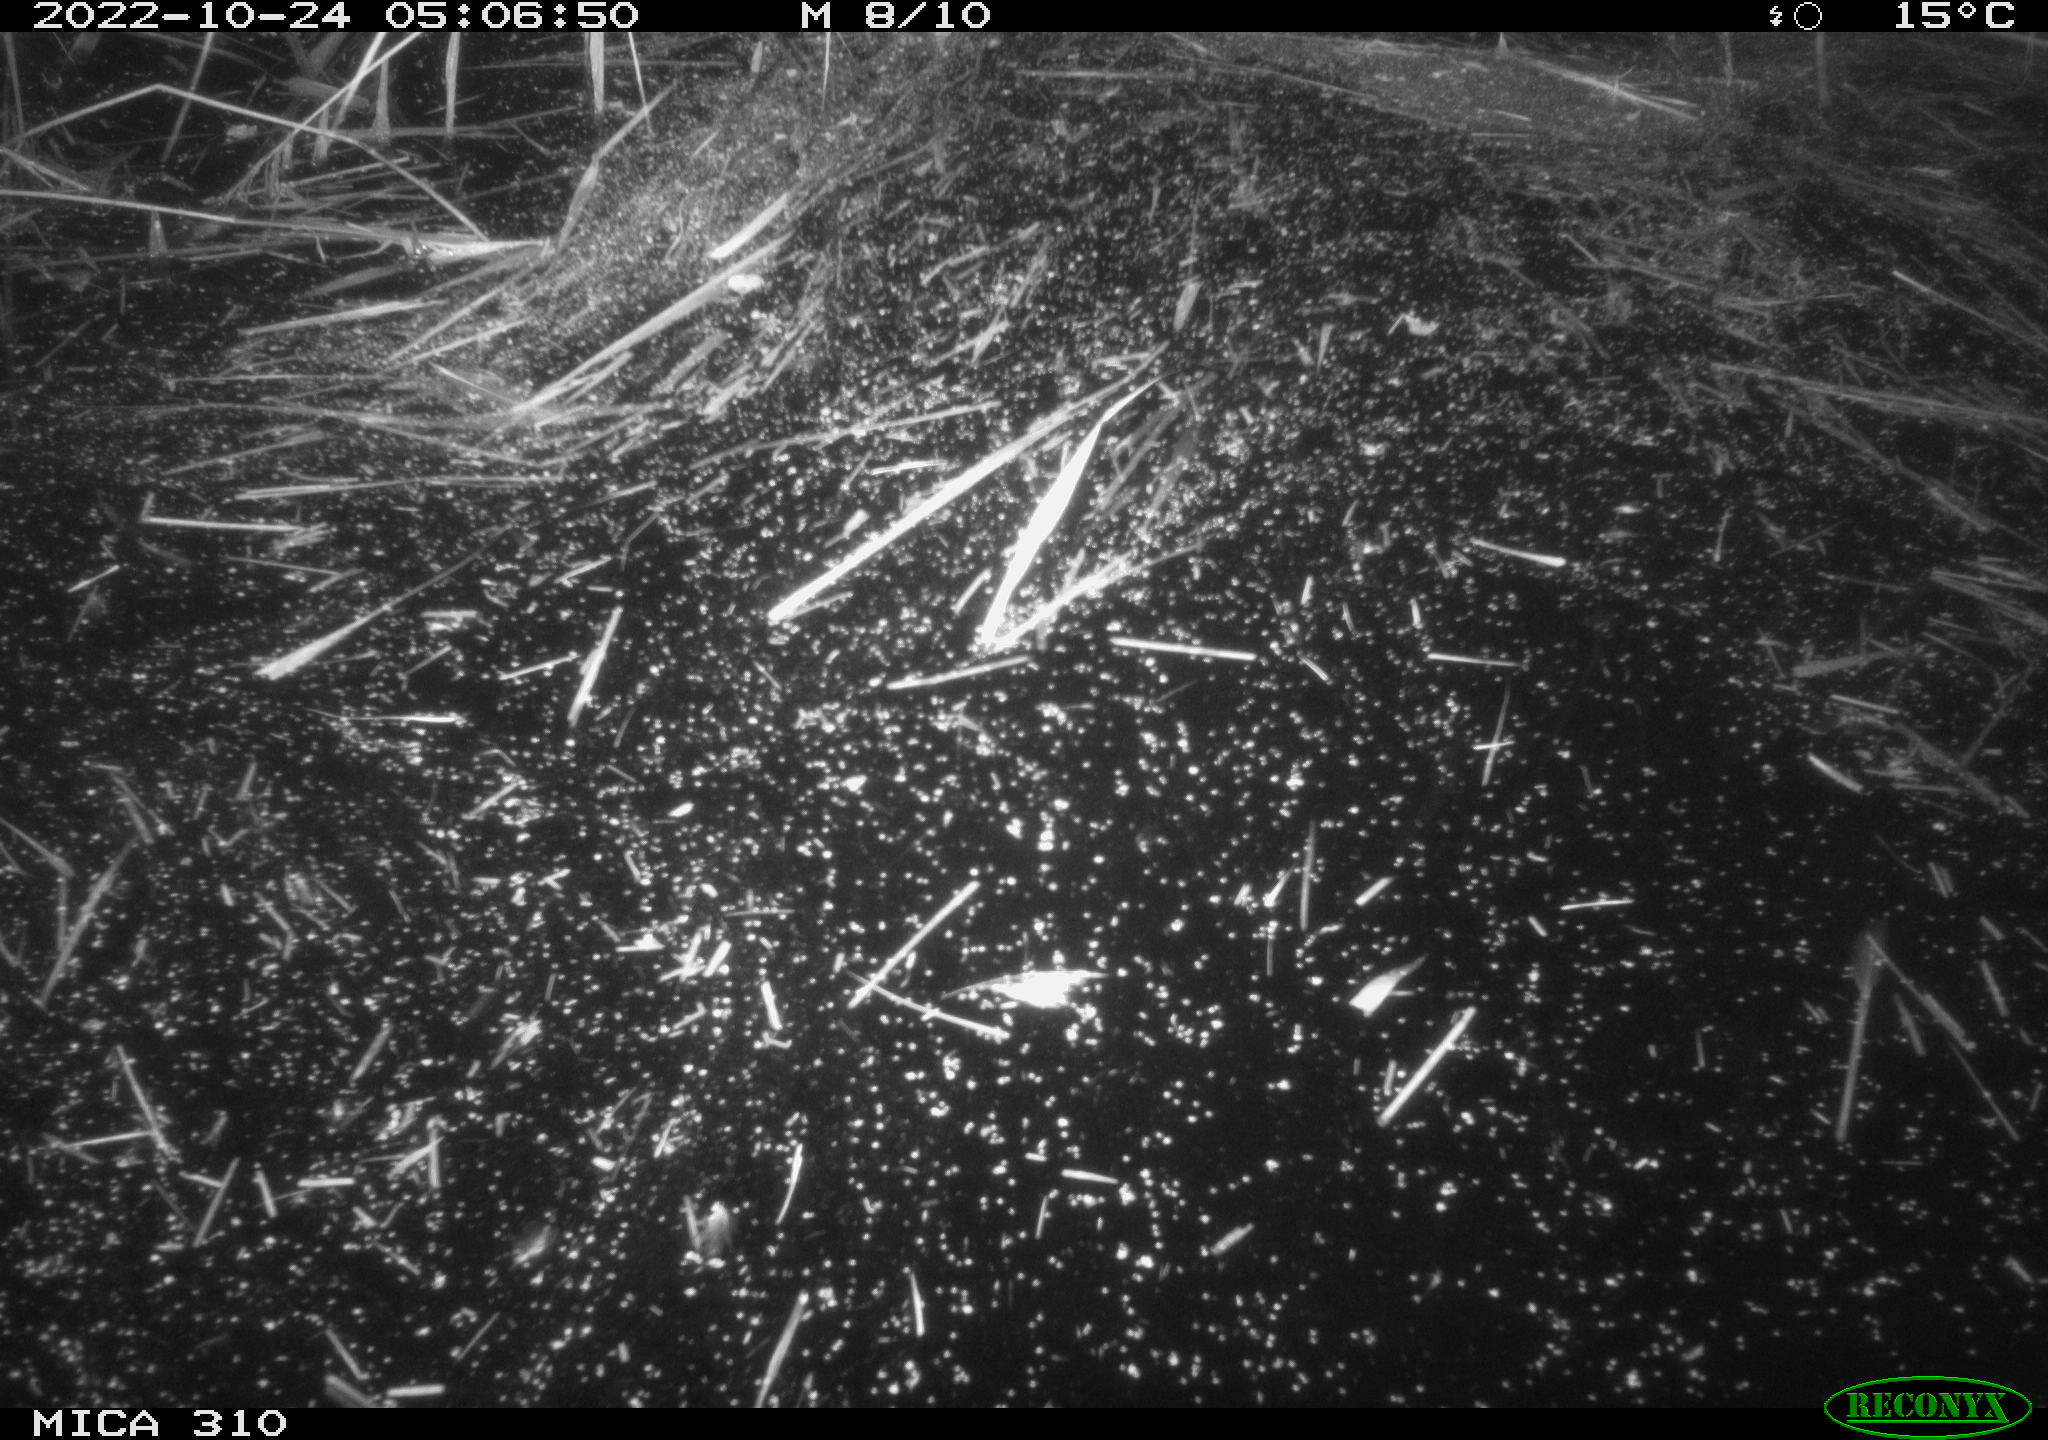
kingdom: Animalia
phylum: Chordata
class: Mammalia
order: Rodentia
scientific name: Rodentia
